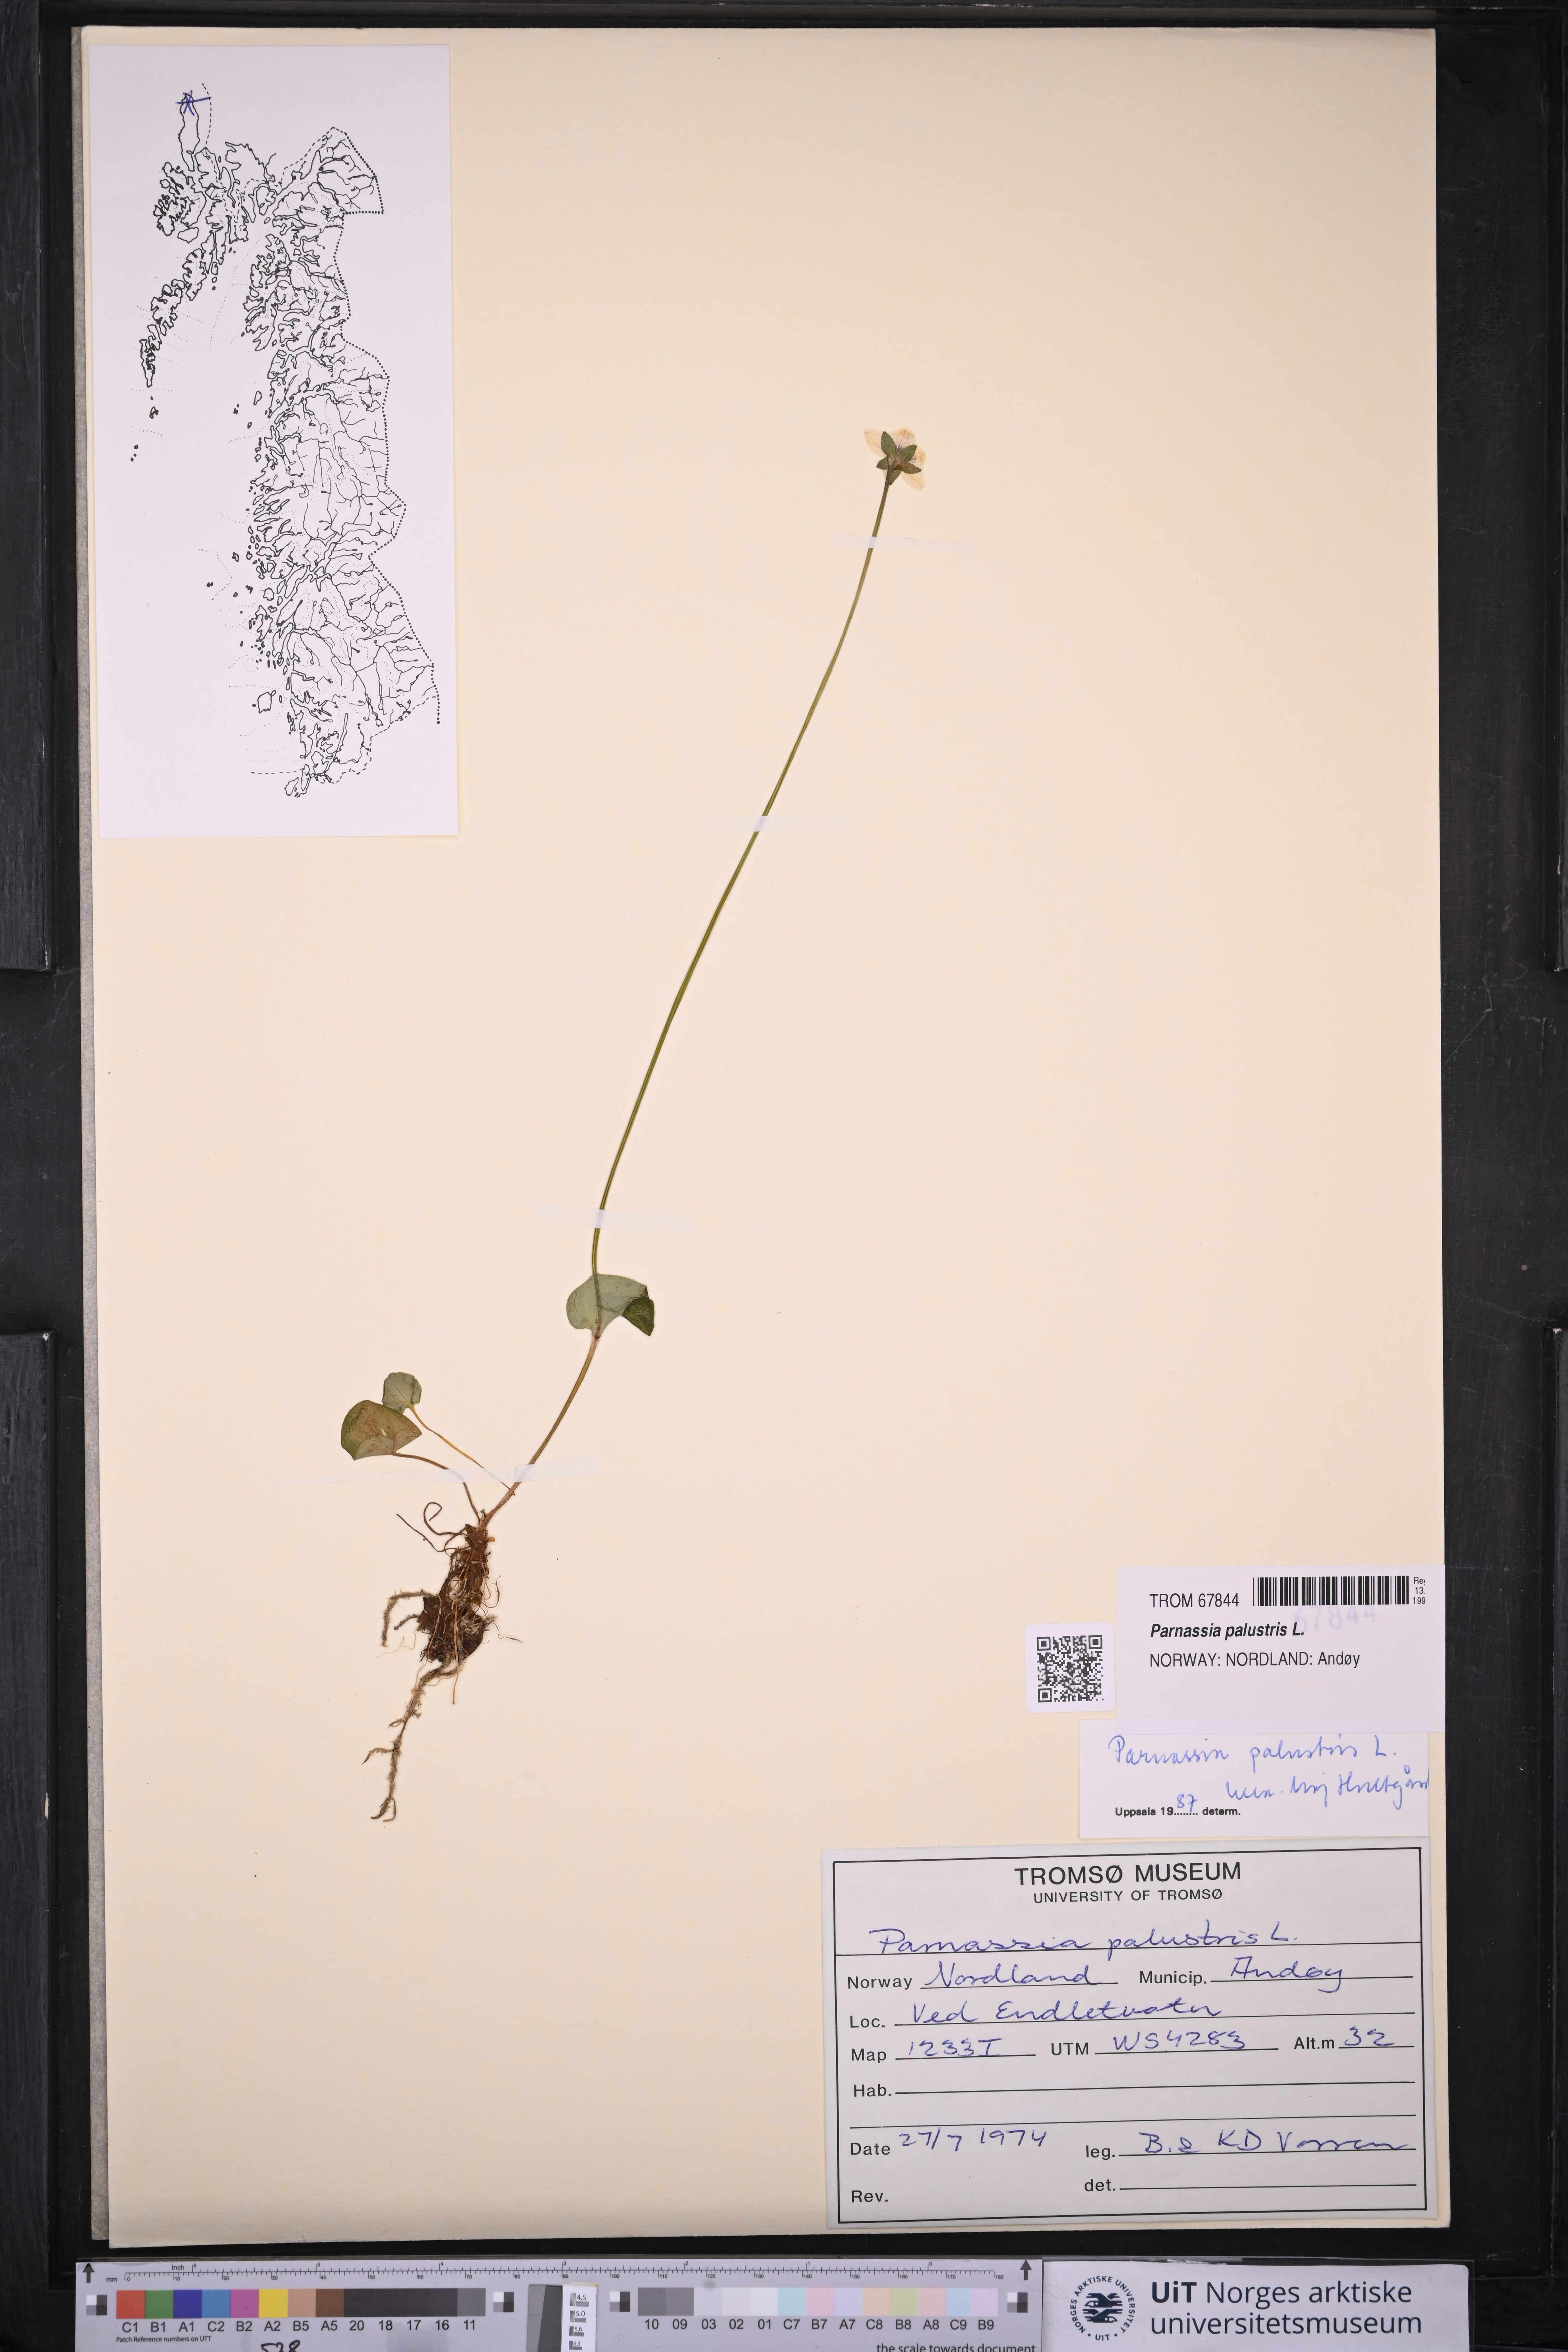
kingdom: Plantae
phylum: Tracheophyta
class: Magnoliopsida
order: Celastrales
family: Parnassiaceae
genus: Parnassia
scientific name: Parnassia palustris
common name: Grass-of-parnassus
